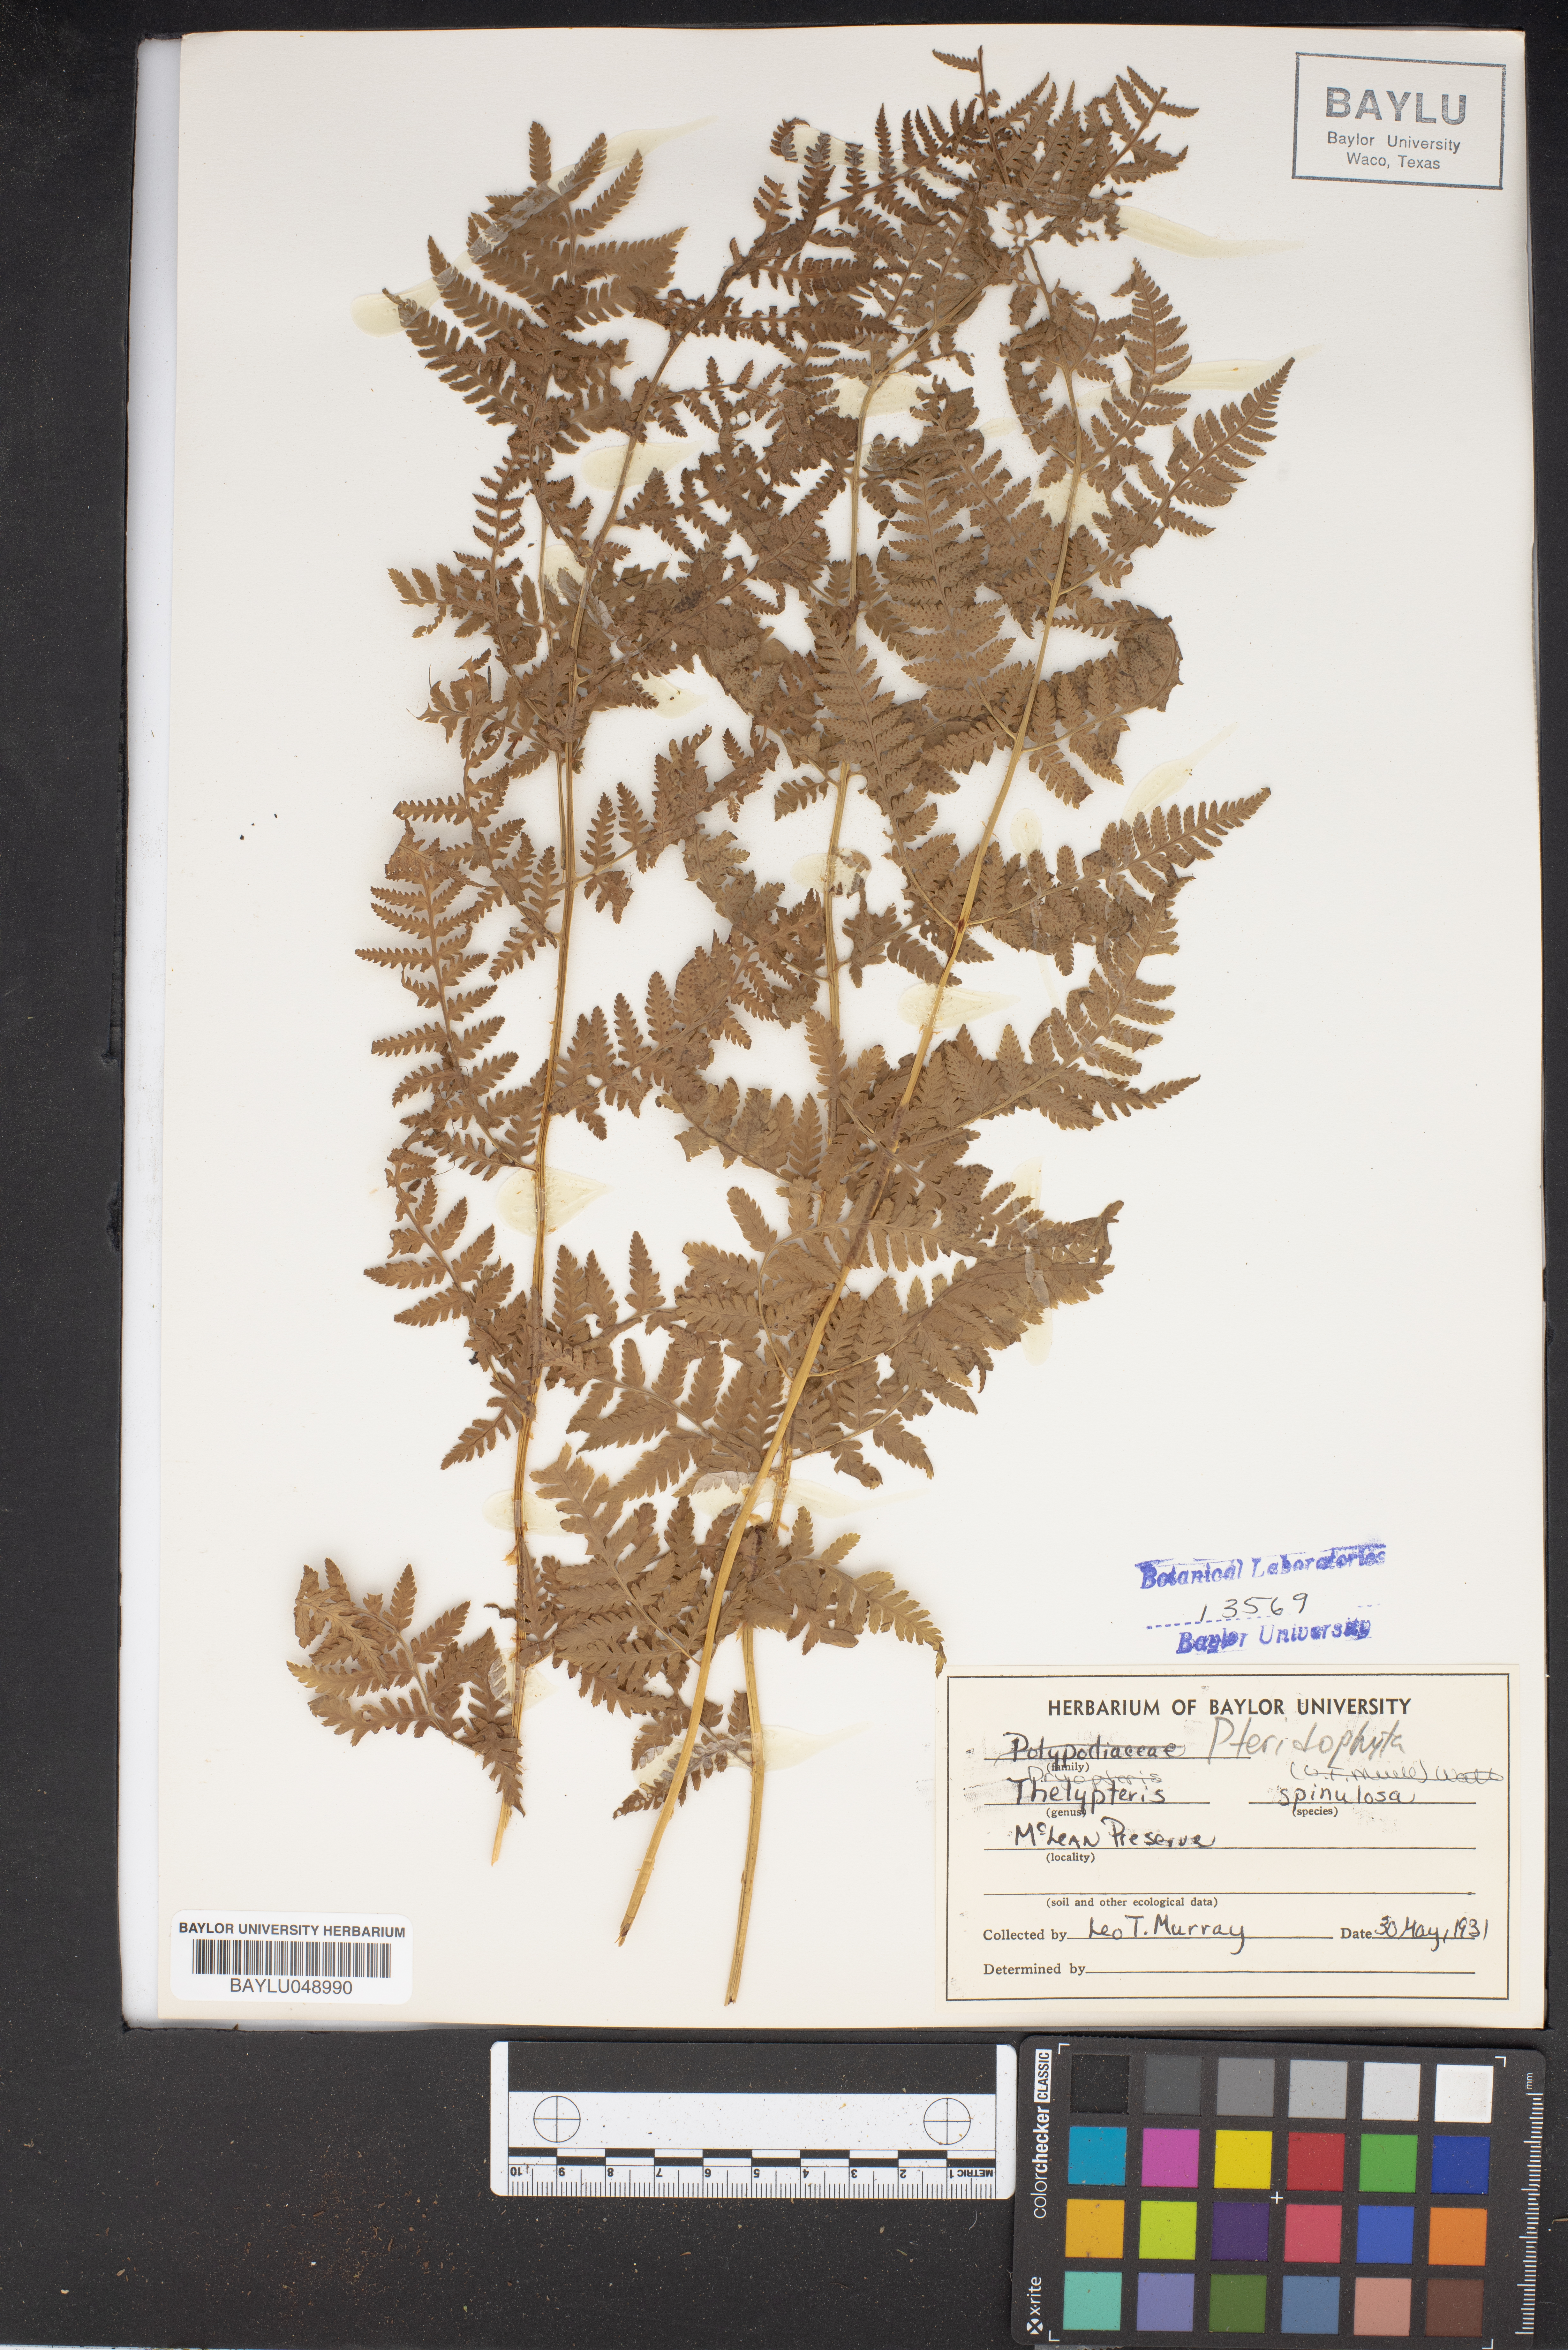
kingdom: Plantae
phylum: Tracheophyta
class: Polypodiopsida
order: Polypodiales
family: Dryopteridaceae
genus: Dryopteris
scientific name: Dryopteris carthusiana
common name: Narrow buckler-fern
